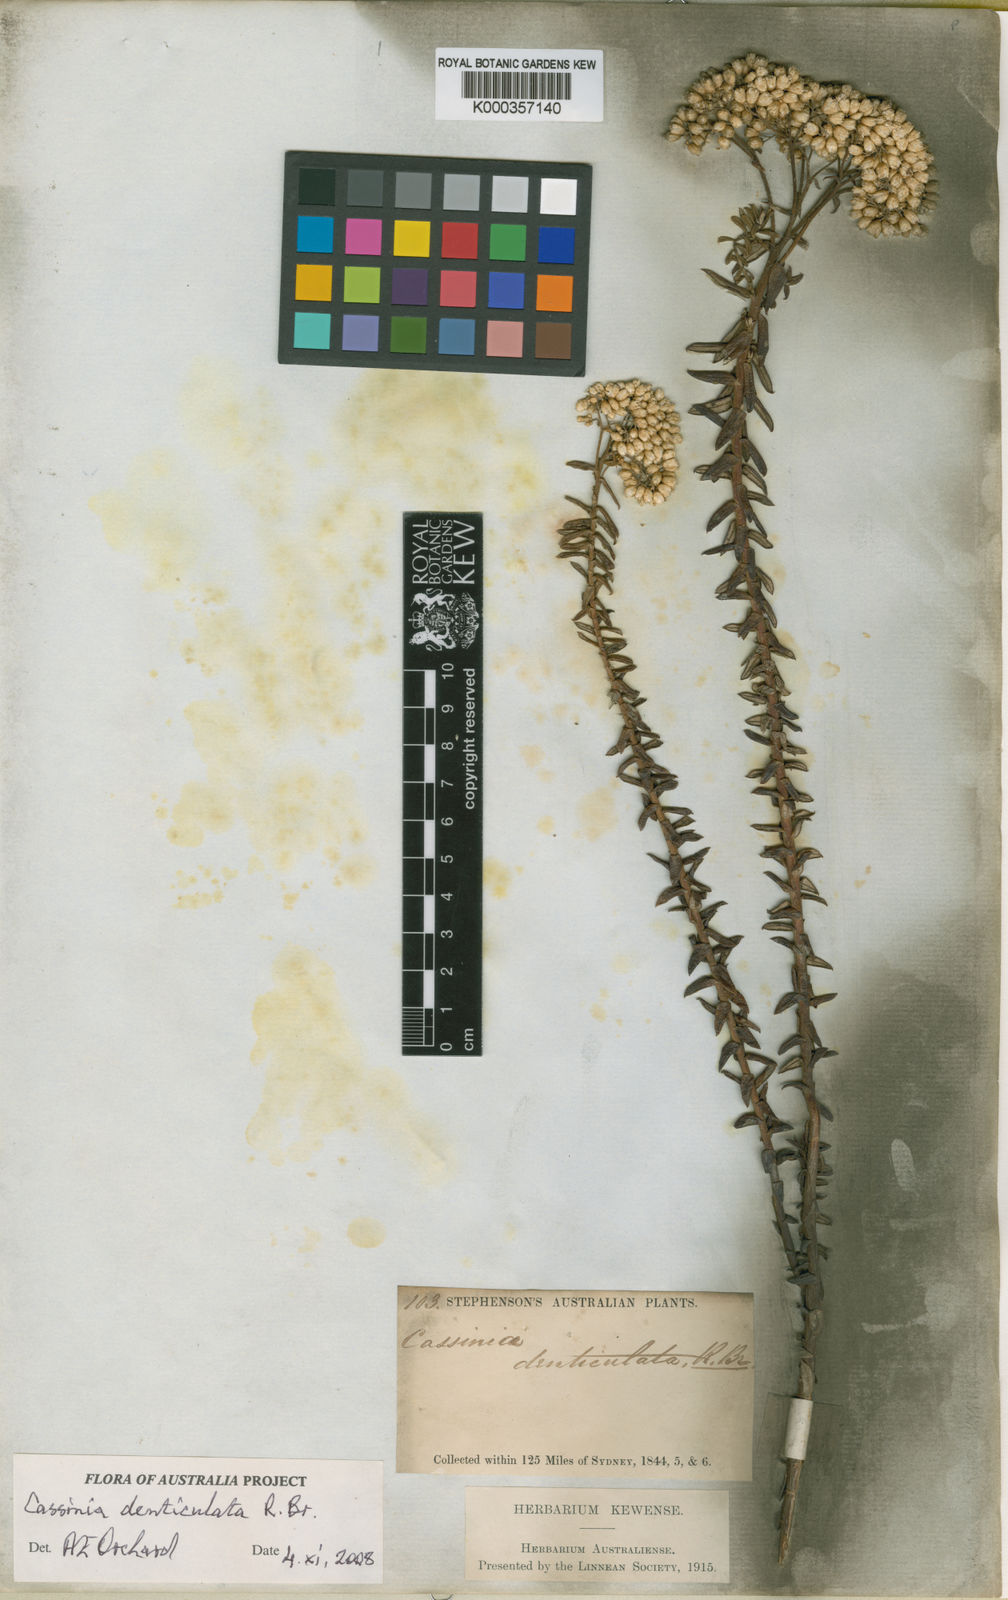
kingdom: Plantae
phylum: Tracheophyta
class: Magnoliopsida
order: Asterales
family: Asteraceae
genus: Cassinia
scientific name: Cassinia denticulata
